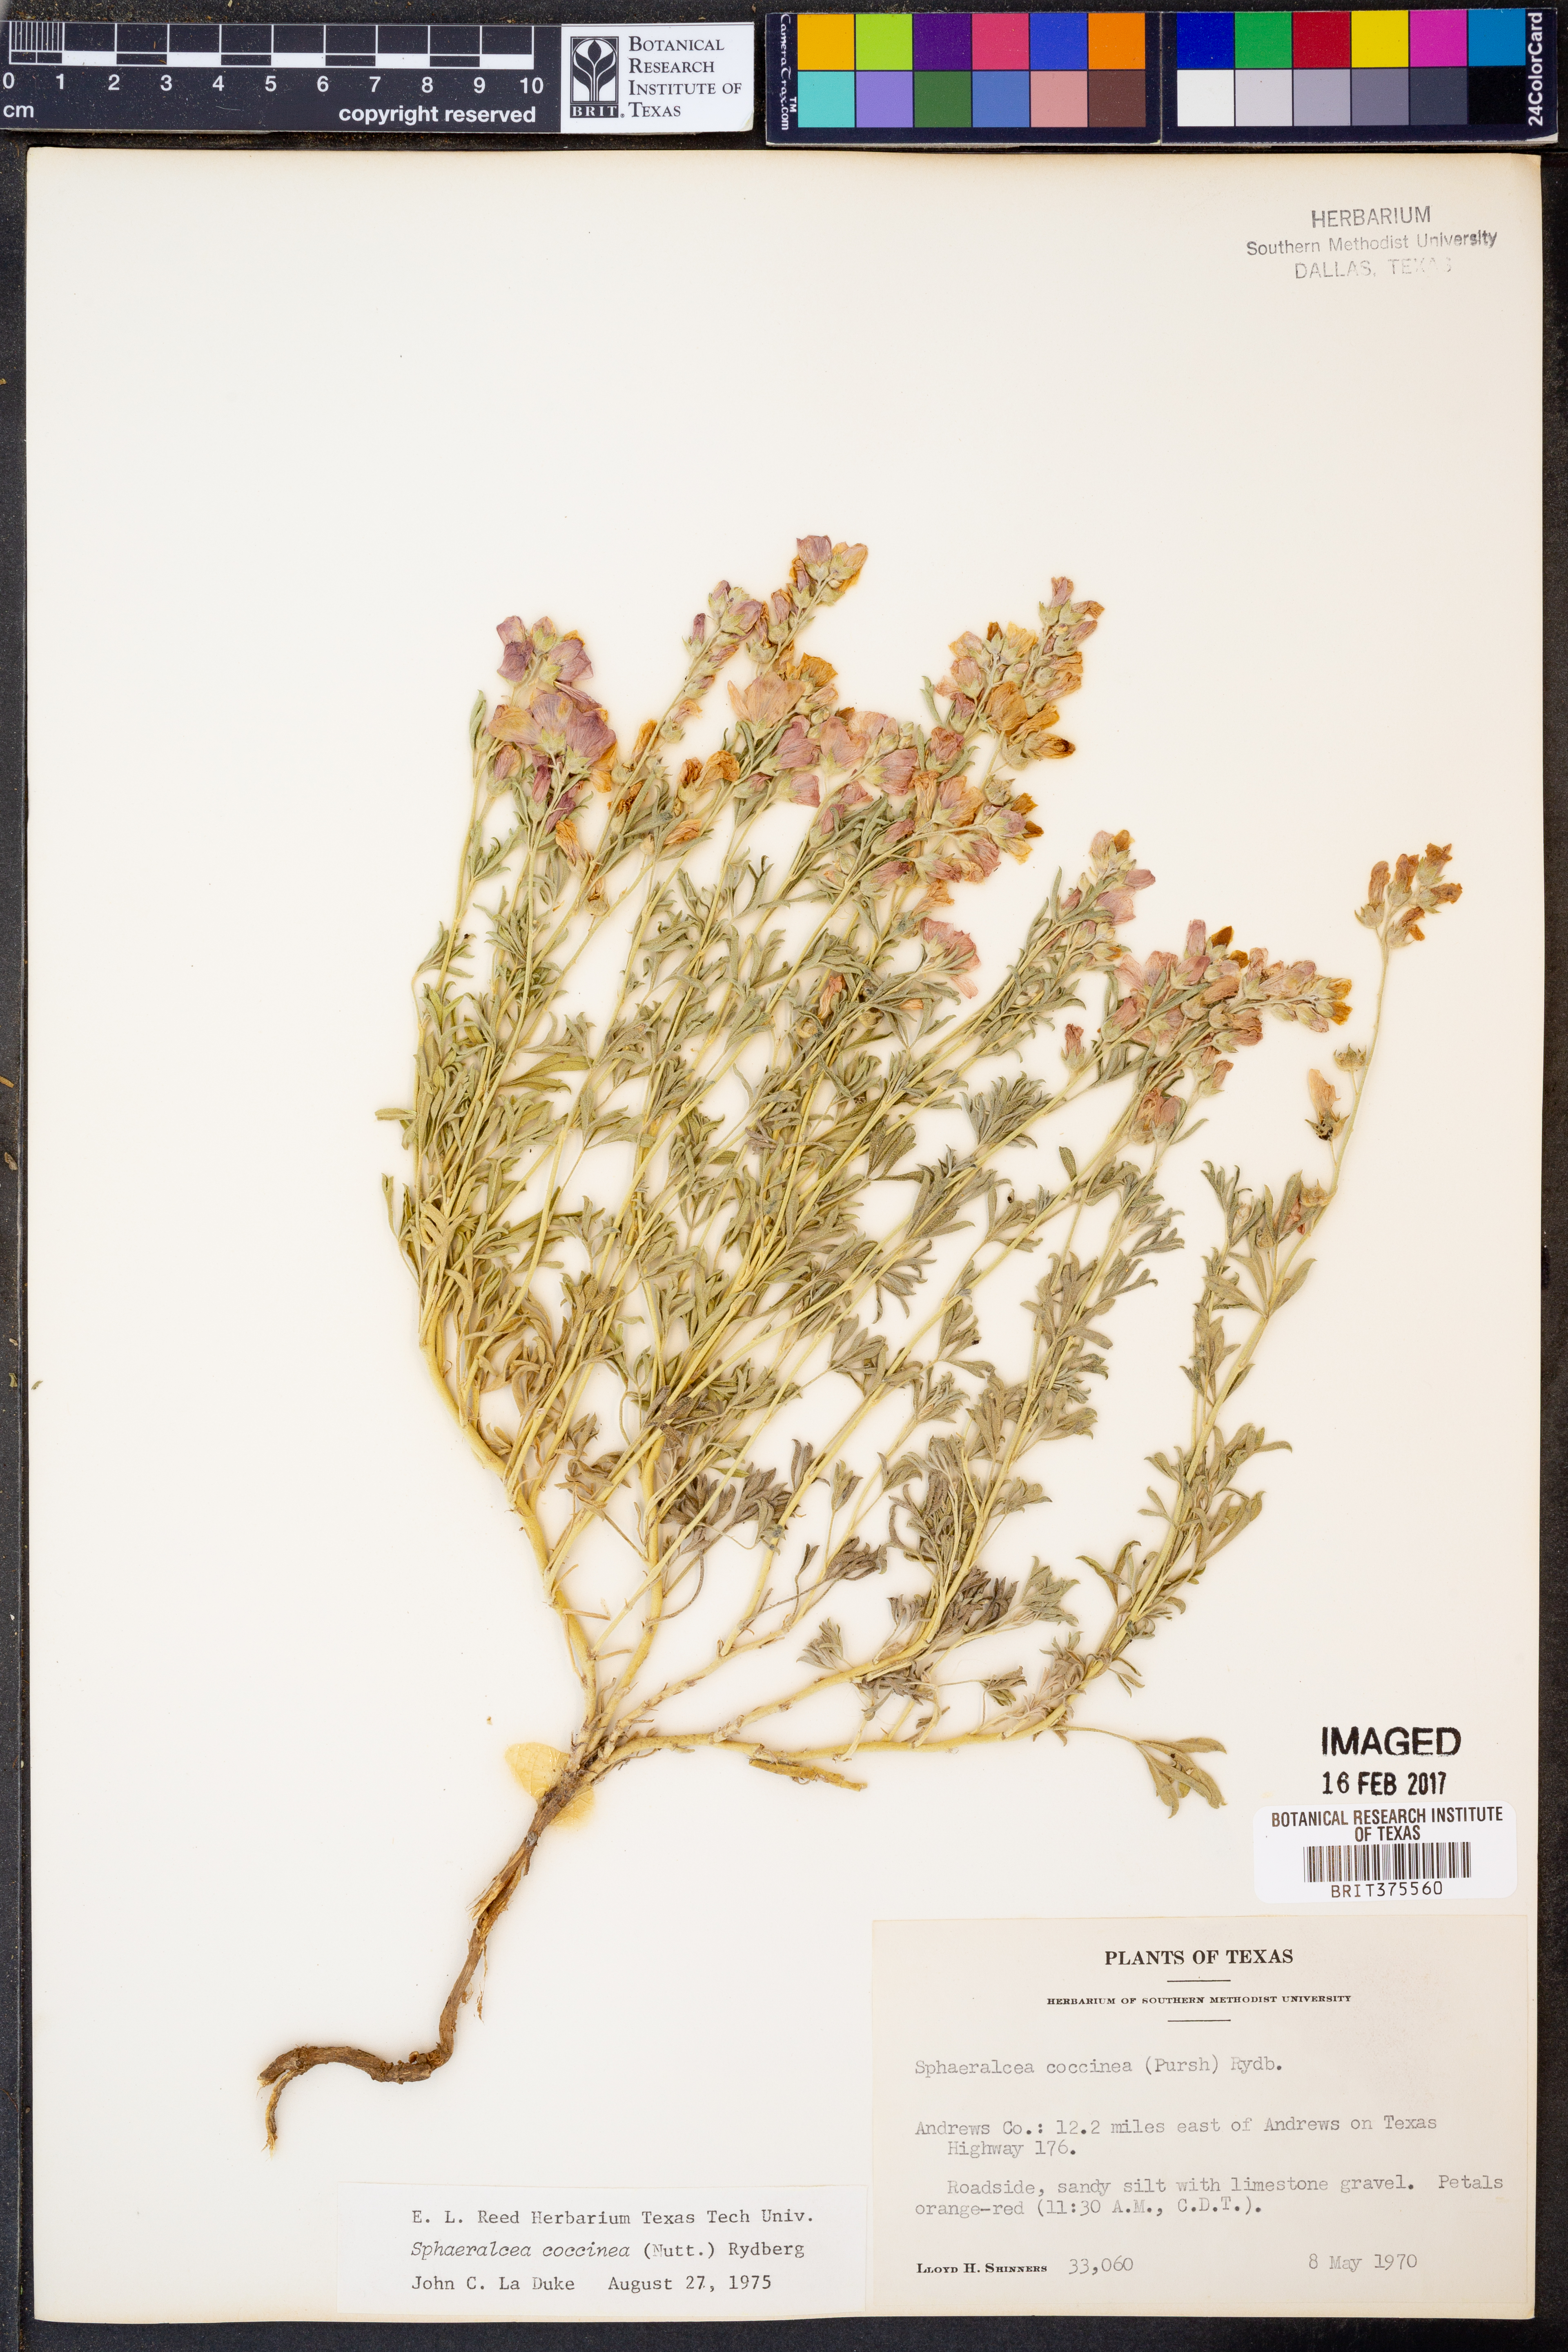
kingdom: Plantae
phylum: Tracheophyta
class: Magnoliopsida
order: Malvales
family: Malvaceae
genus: Sphaeralcea
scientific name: Sphaeralcea coccinea
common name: Moss-rose
